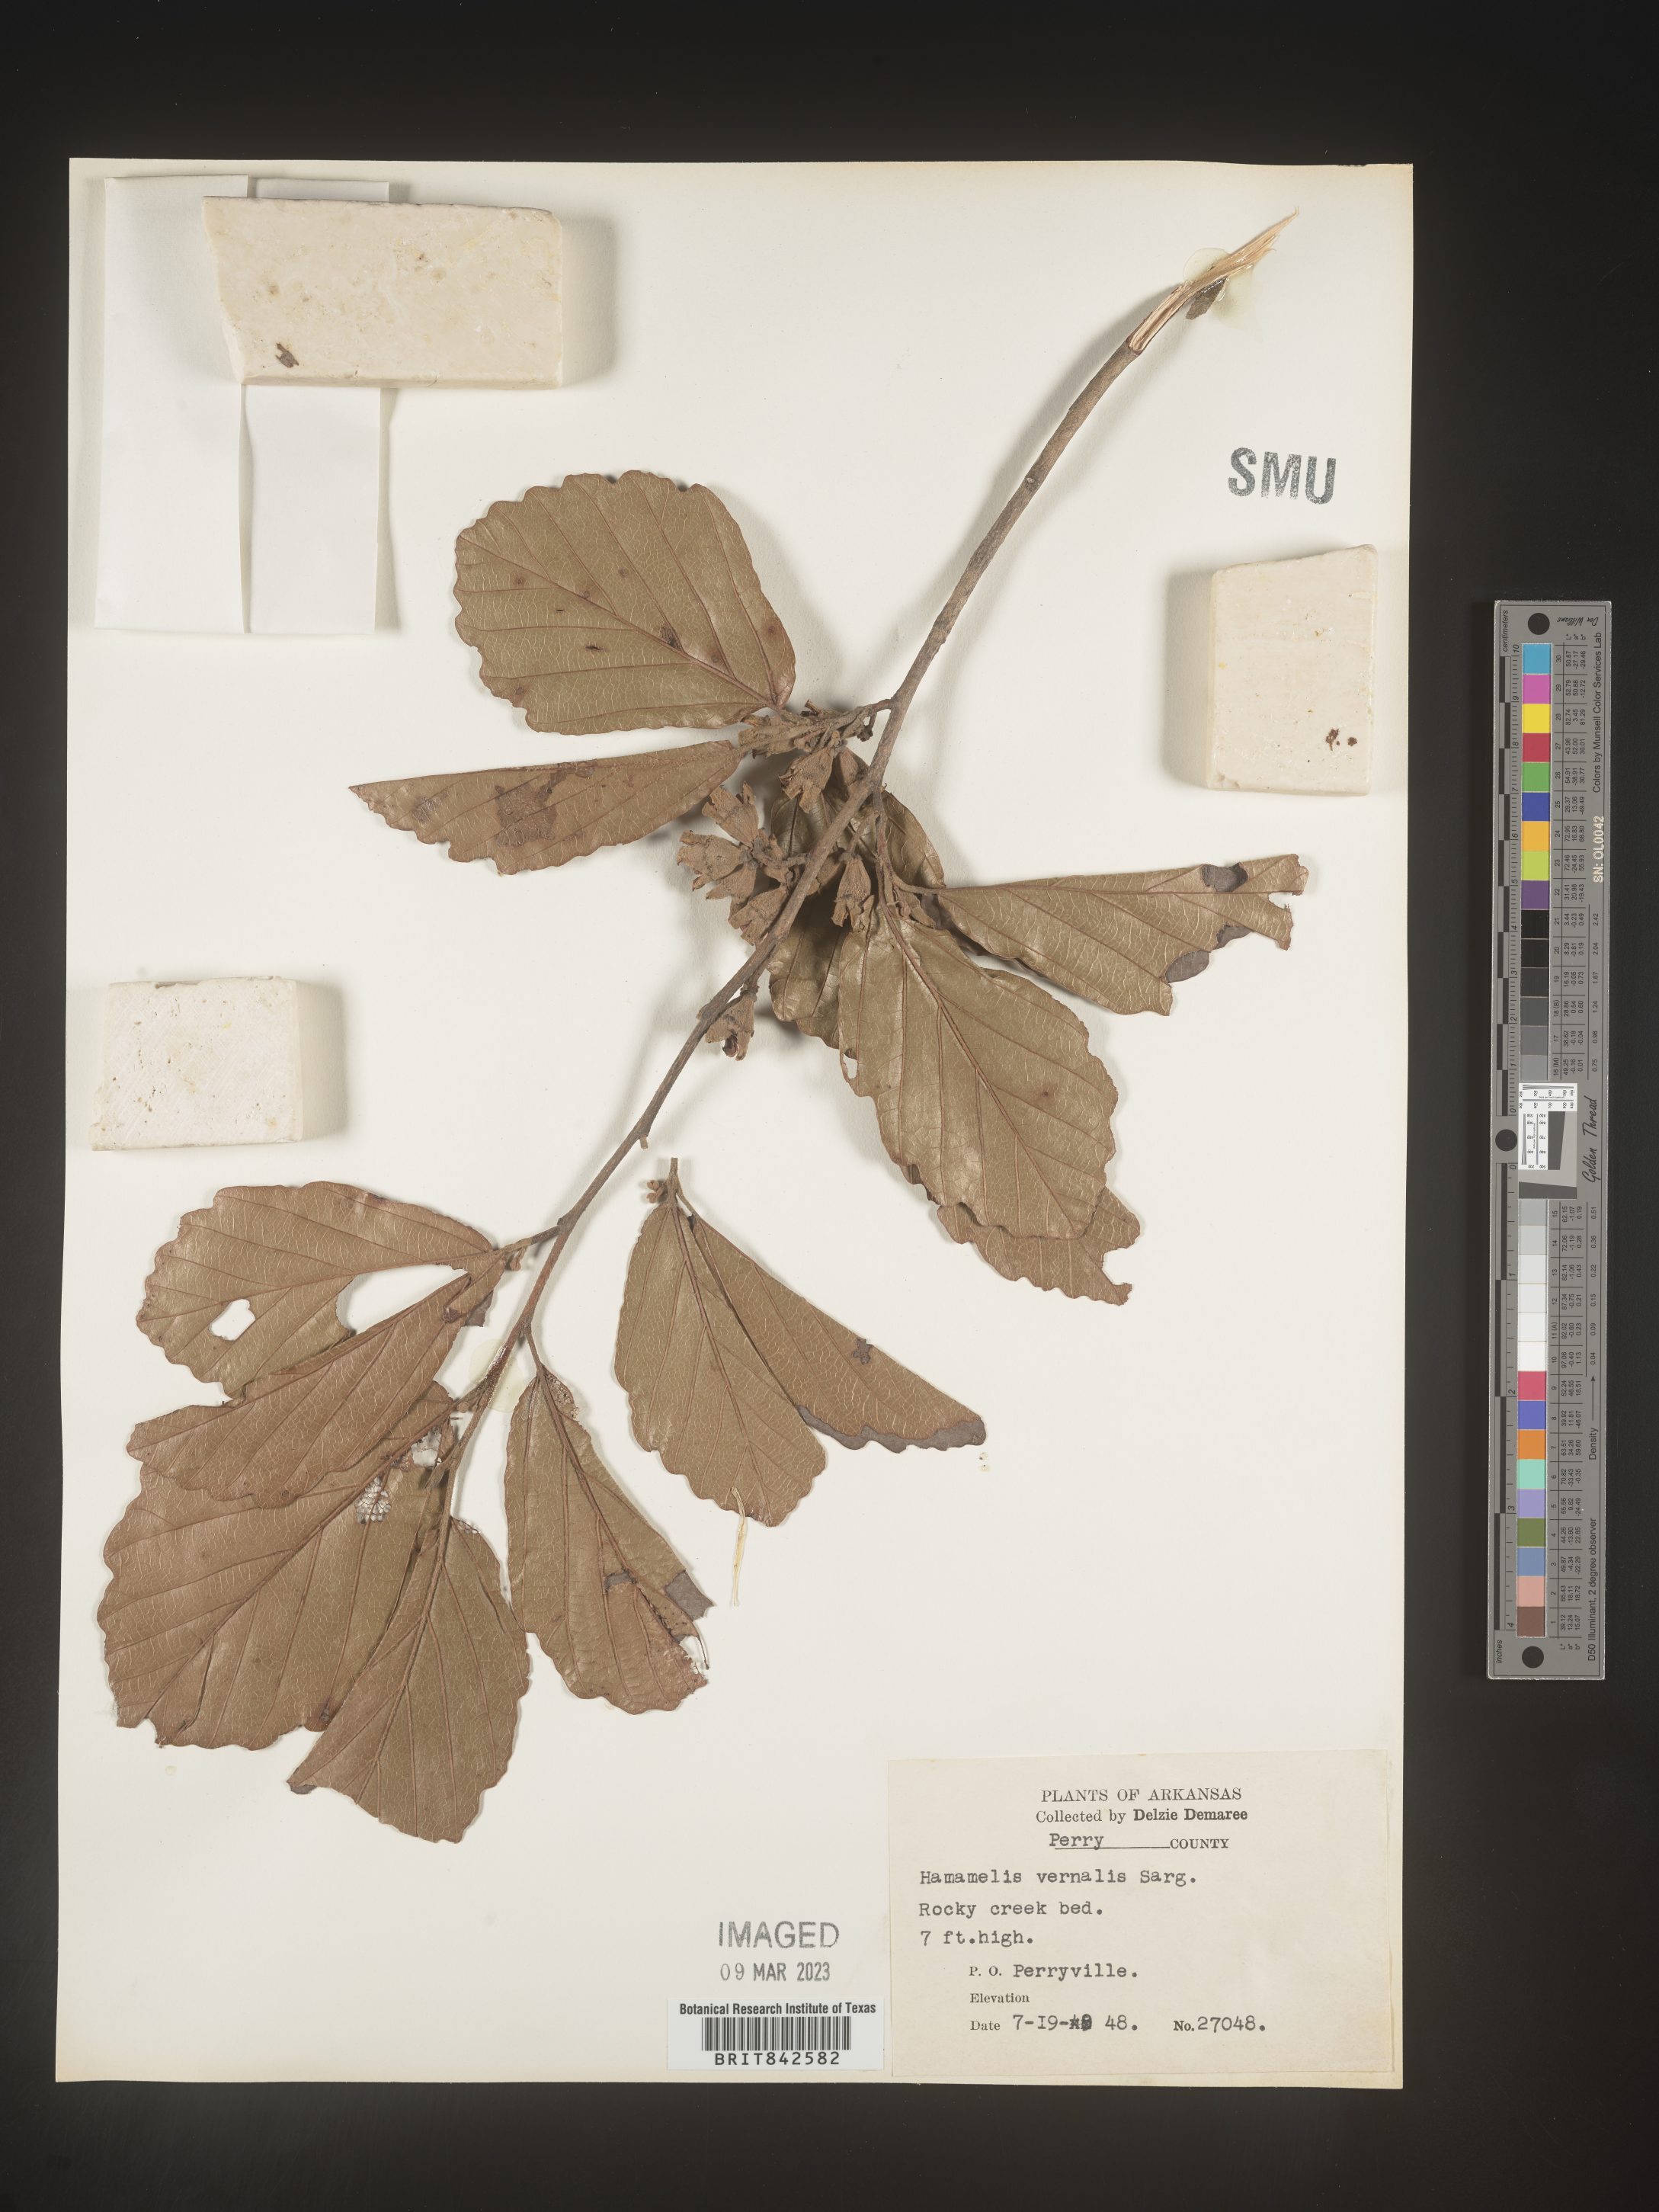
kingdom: Plantae
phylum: Tracheophyta
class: Magnoliopsida
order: Saxifragales
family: Hamamelidaceae
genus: Hamamelis
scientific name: Hamamelis vernalis
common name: Ozark witch-hazel
